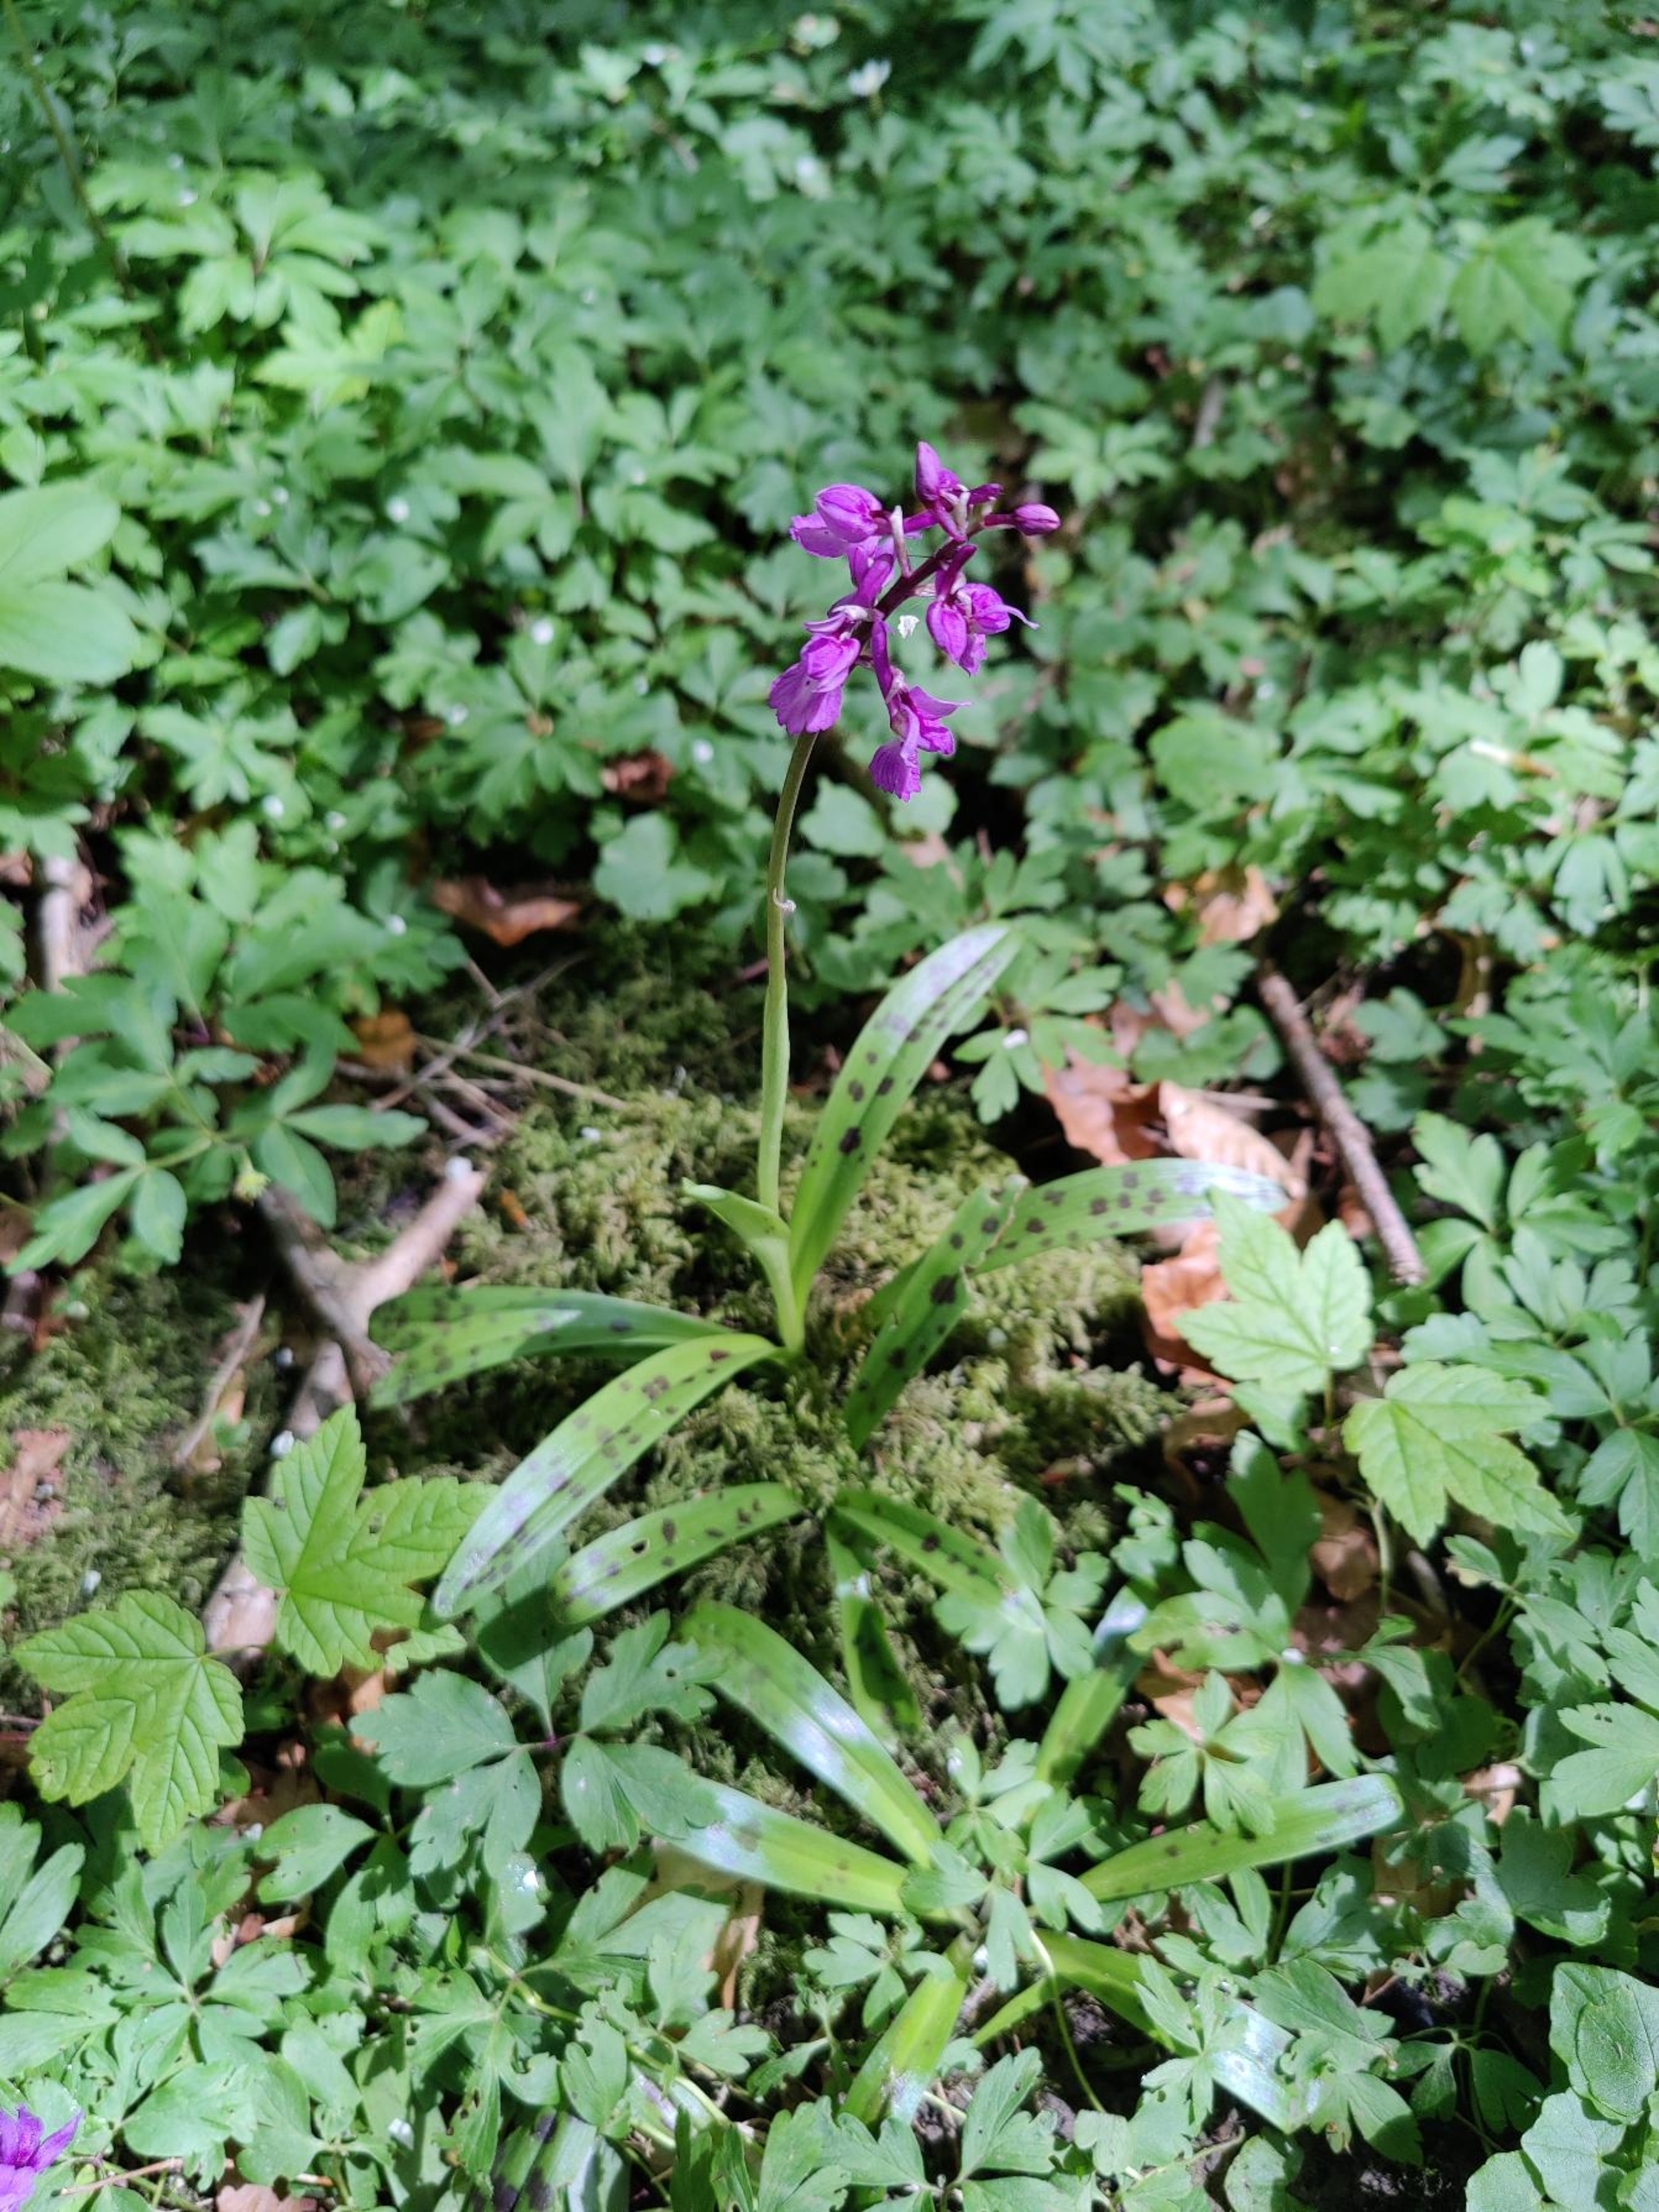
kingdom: Plantae
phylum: Tracheophyta
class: Liliopsida
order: Asparagales
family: Orchidaceae
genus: Orchis
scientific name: Orchis mascula
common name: Tyndakset gøgeurt
